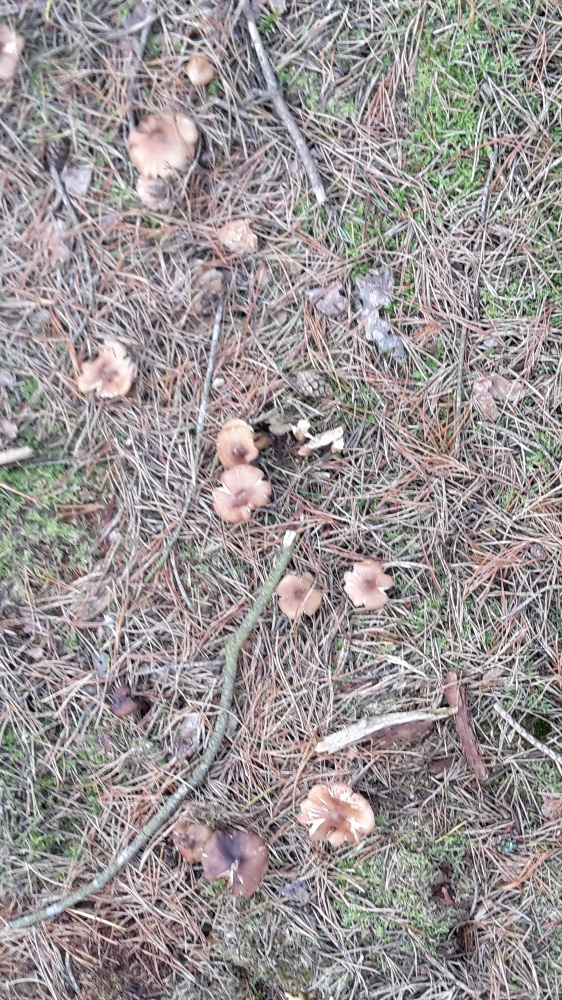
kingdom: Fungi
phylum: Basidiomycota
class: Agaricomycetes
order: Agaricales
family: Tricholomataceae
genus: Tricholoma
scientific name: Tricholoma aestuans
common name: kegle-ridderhat
